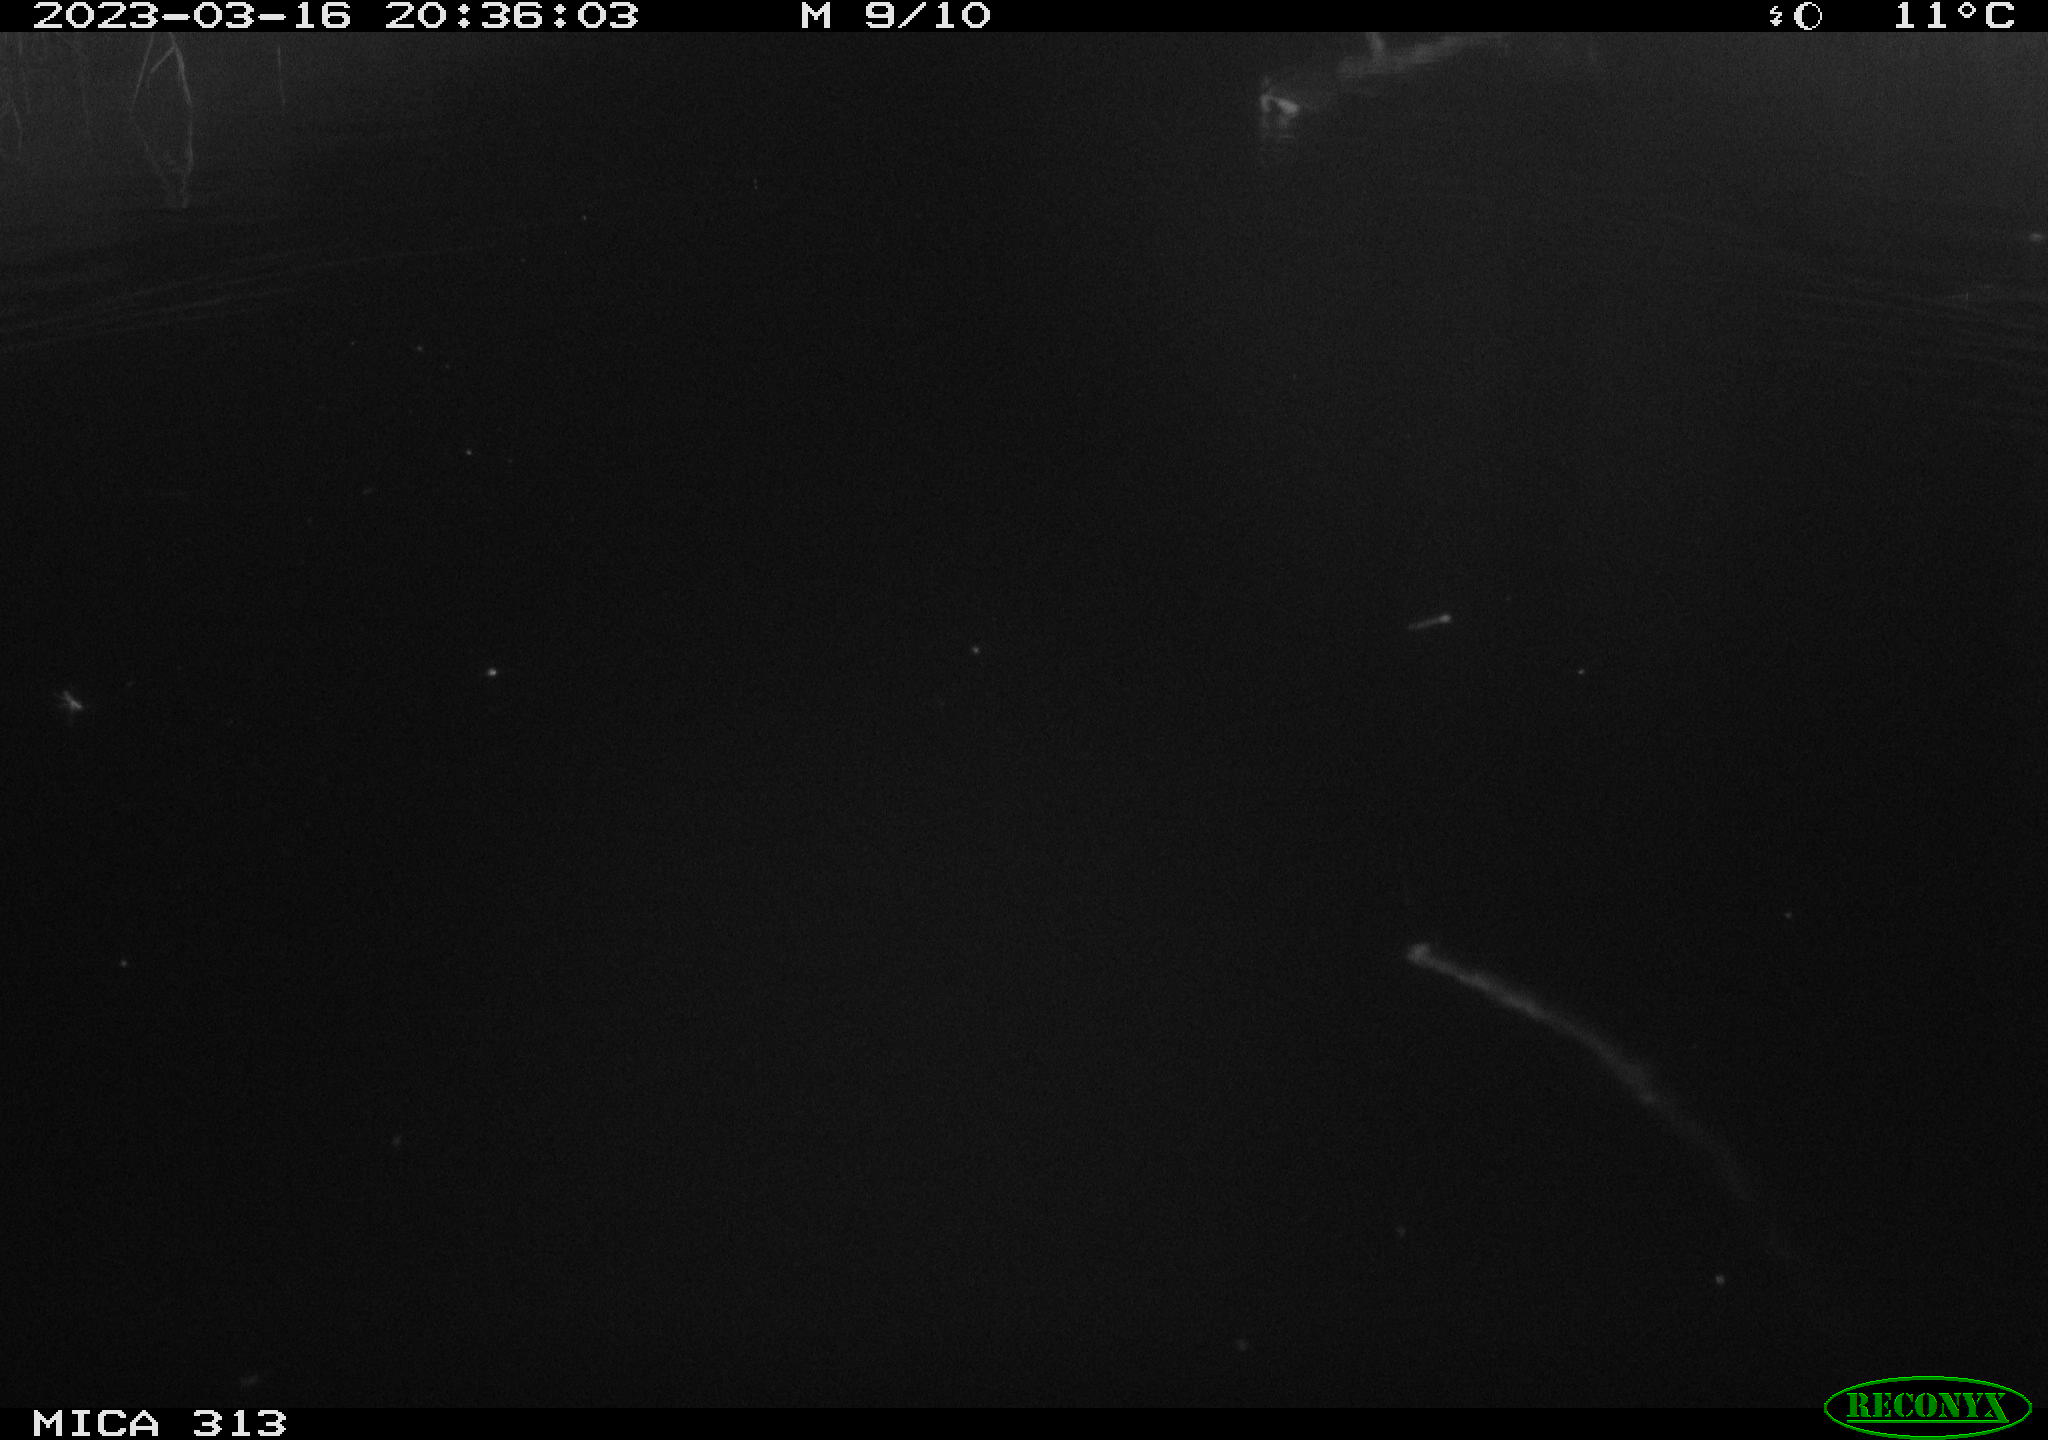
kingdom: Animalia
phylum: Chordata
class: Aves
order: Gruiformes
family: Rallidae
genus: Gallinula
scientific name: Gallinula chloropus
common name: Common moorhen
